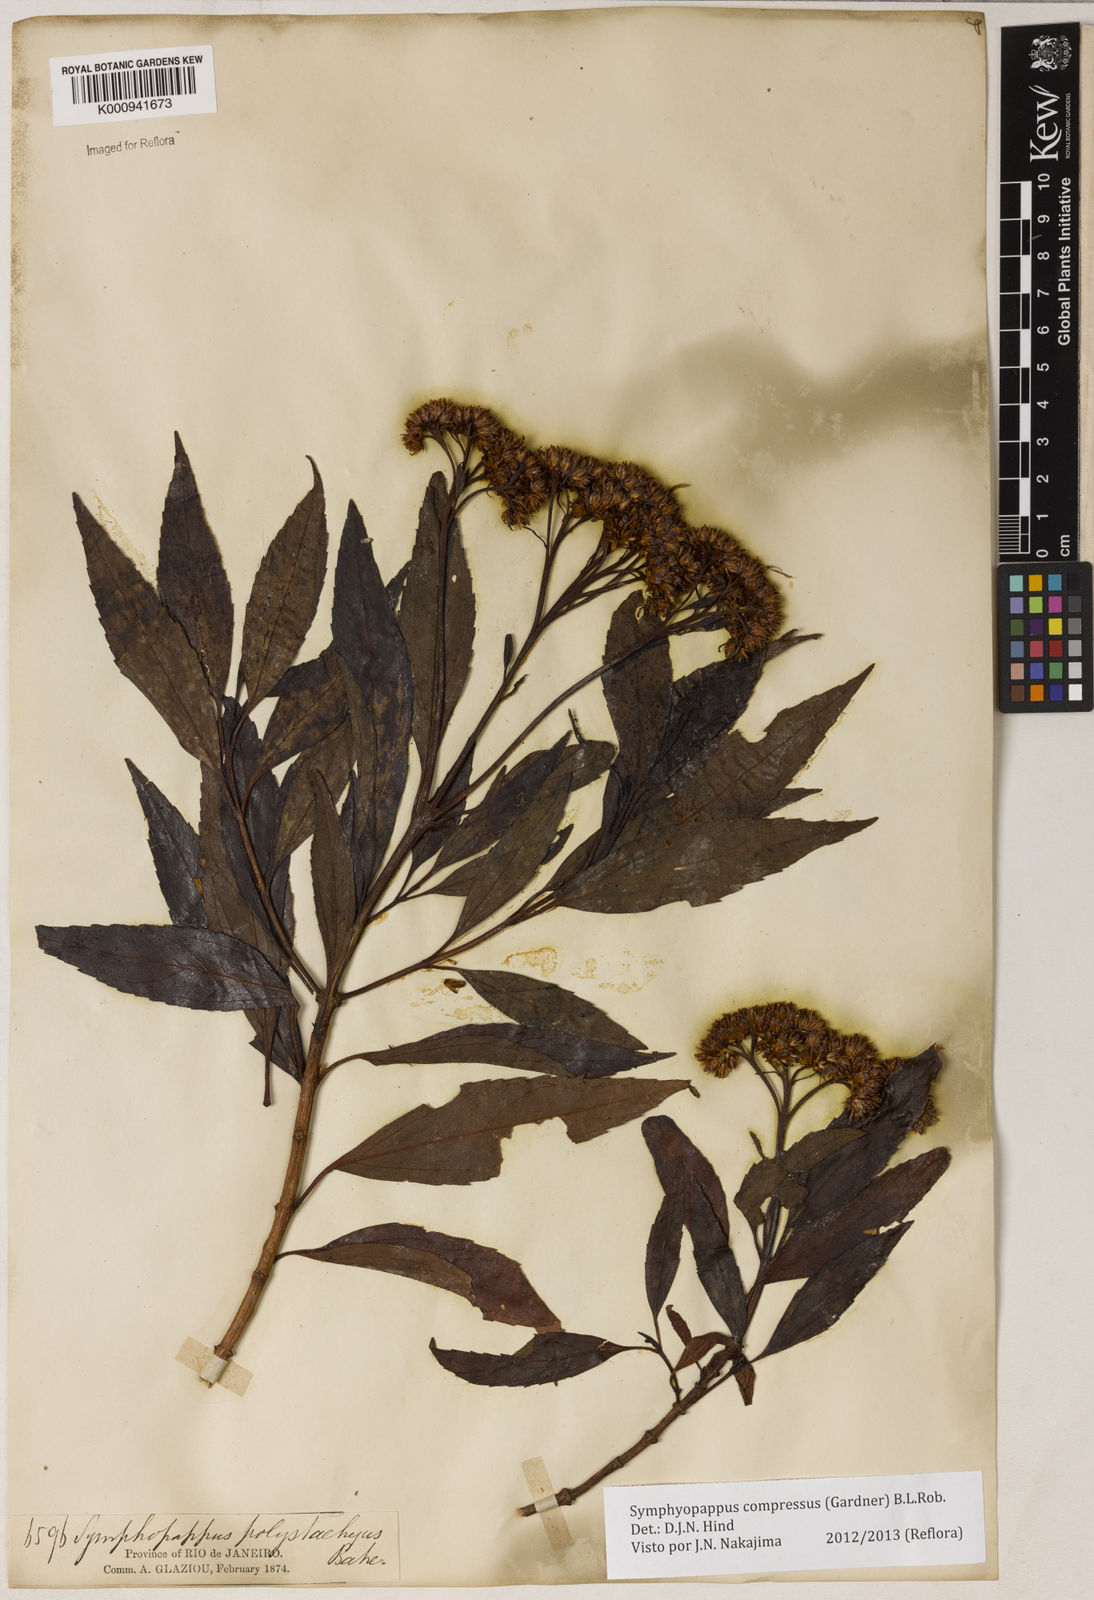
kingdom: Plantae
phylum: Tracheophyta
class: Magnoliopsida
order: Asterales
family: Asteraceae
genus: Symphyopappus
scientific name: Symphyopappus compressus
